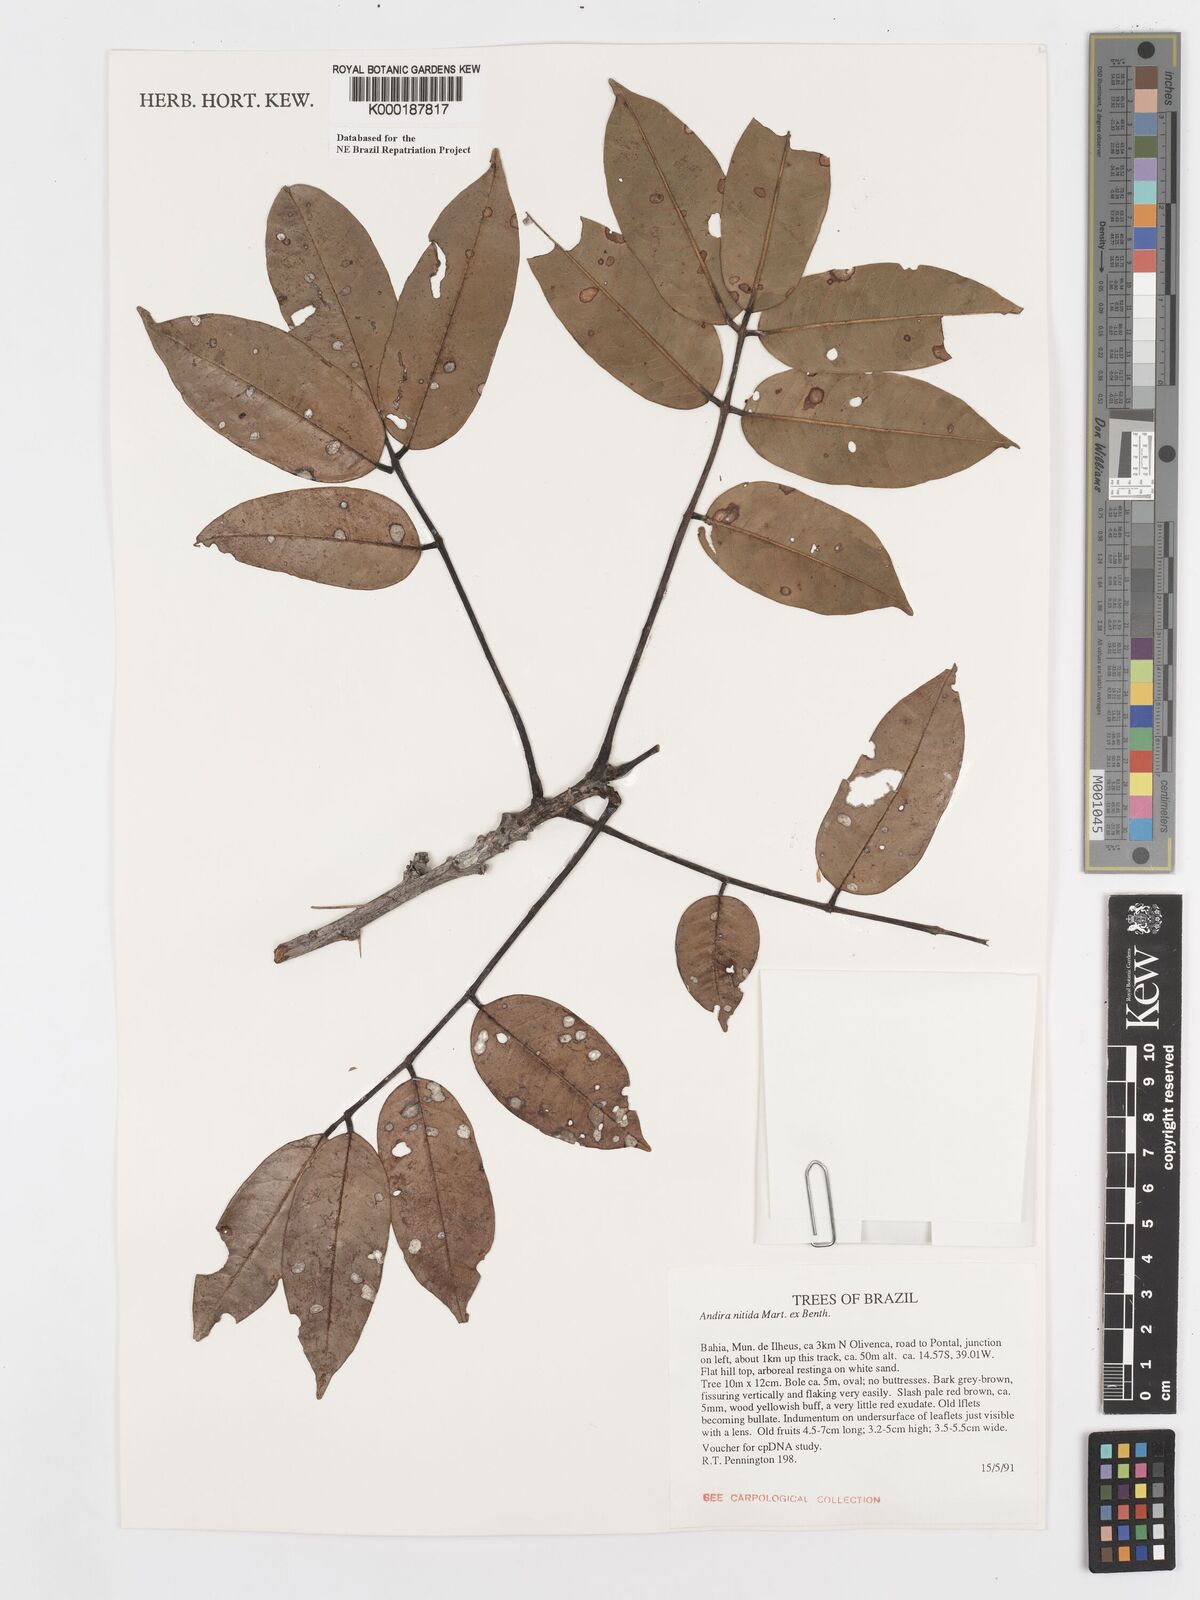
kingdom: Plantae
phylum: Tracheophyta
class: Magnoliopsida
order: Fabales
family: Fabaceae
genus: Andira
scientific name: Andira nitida
